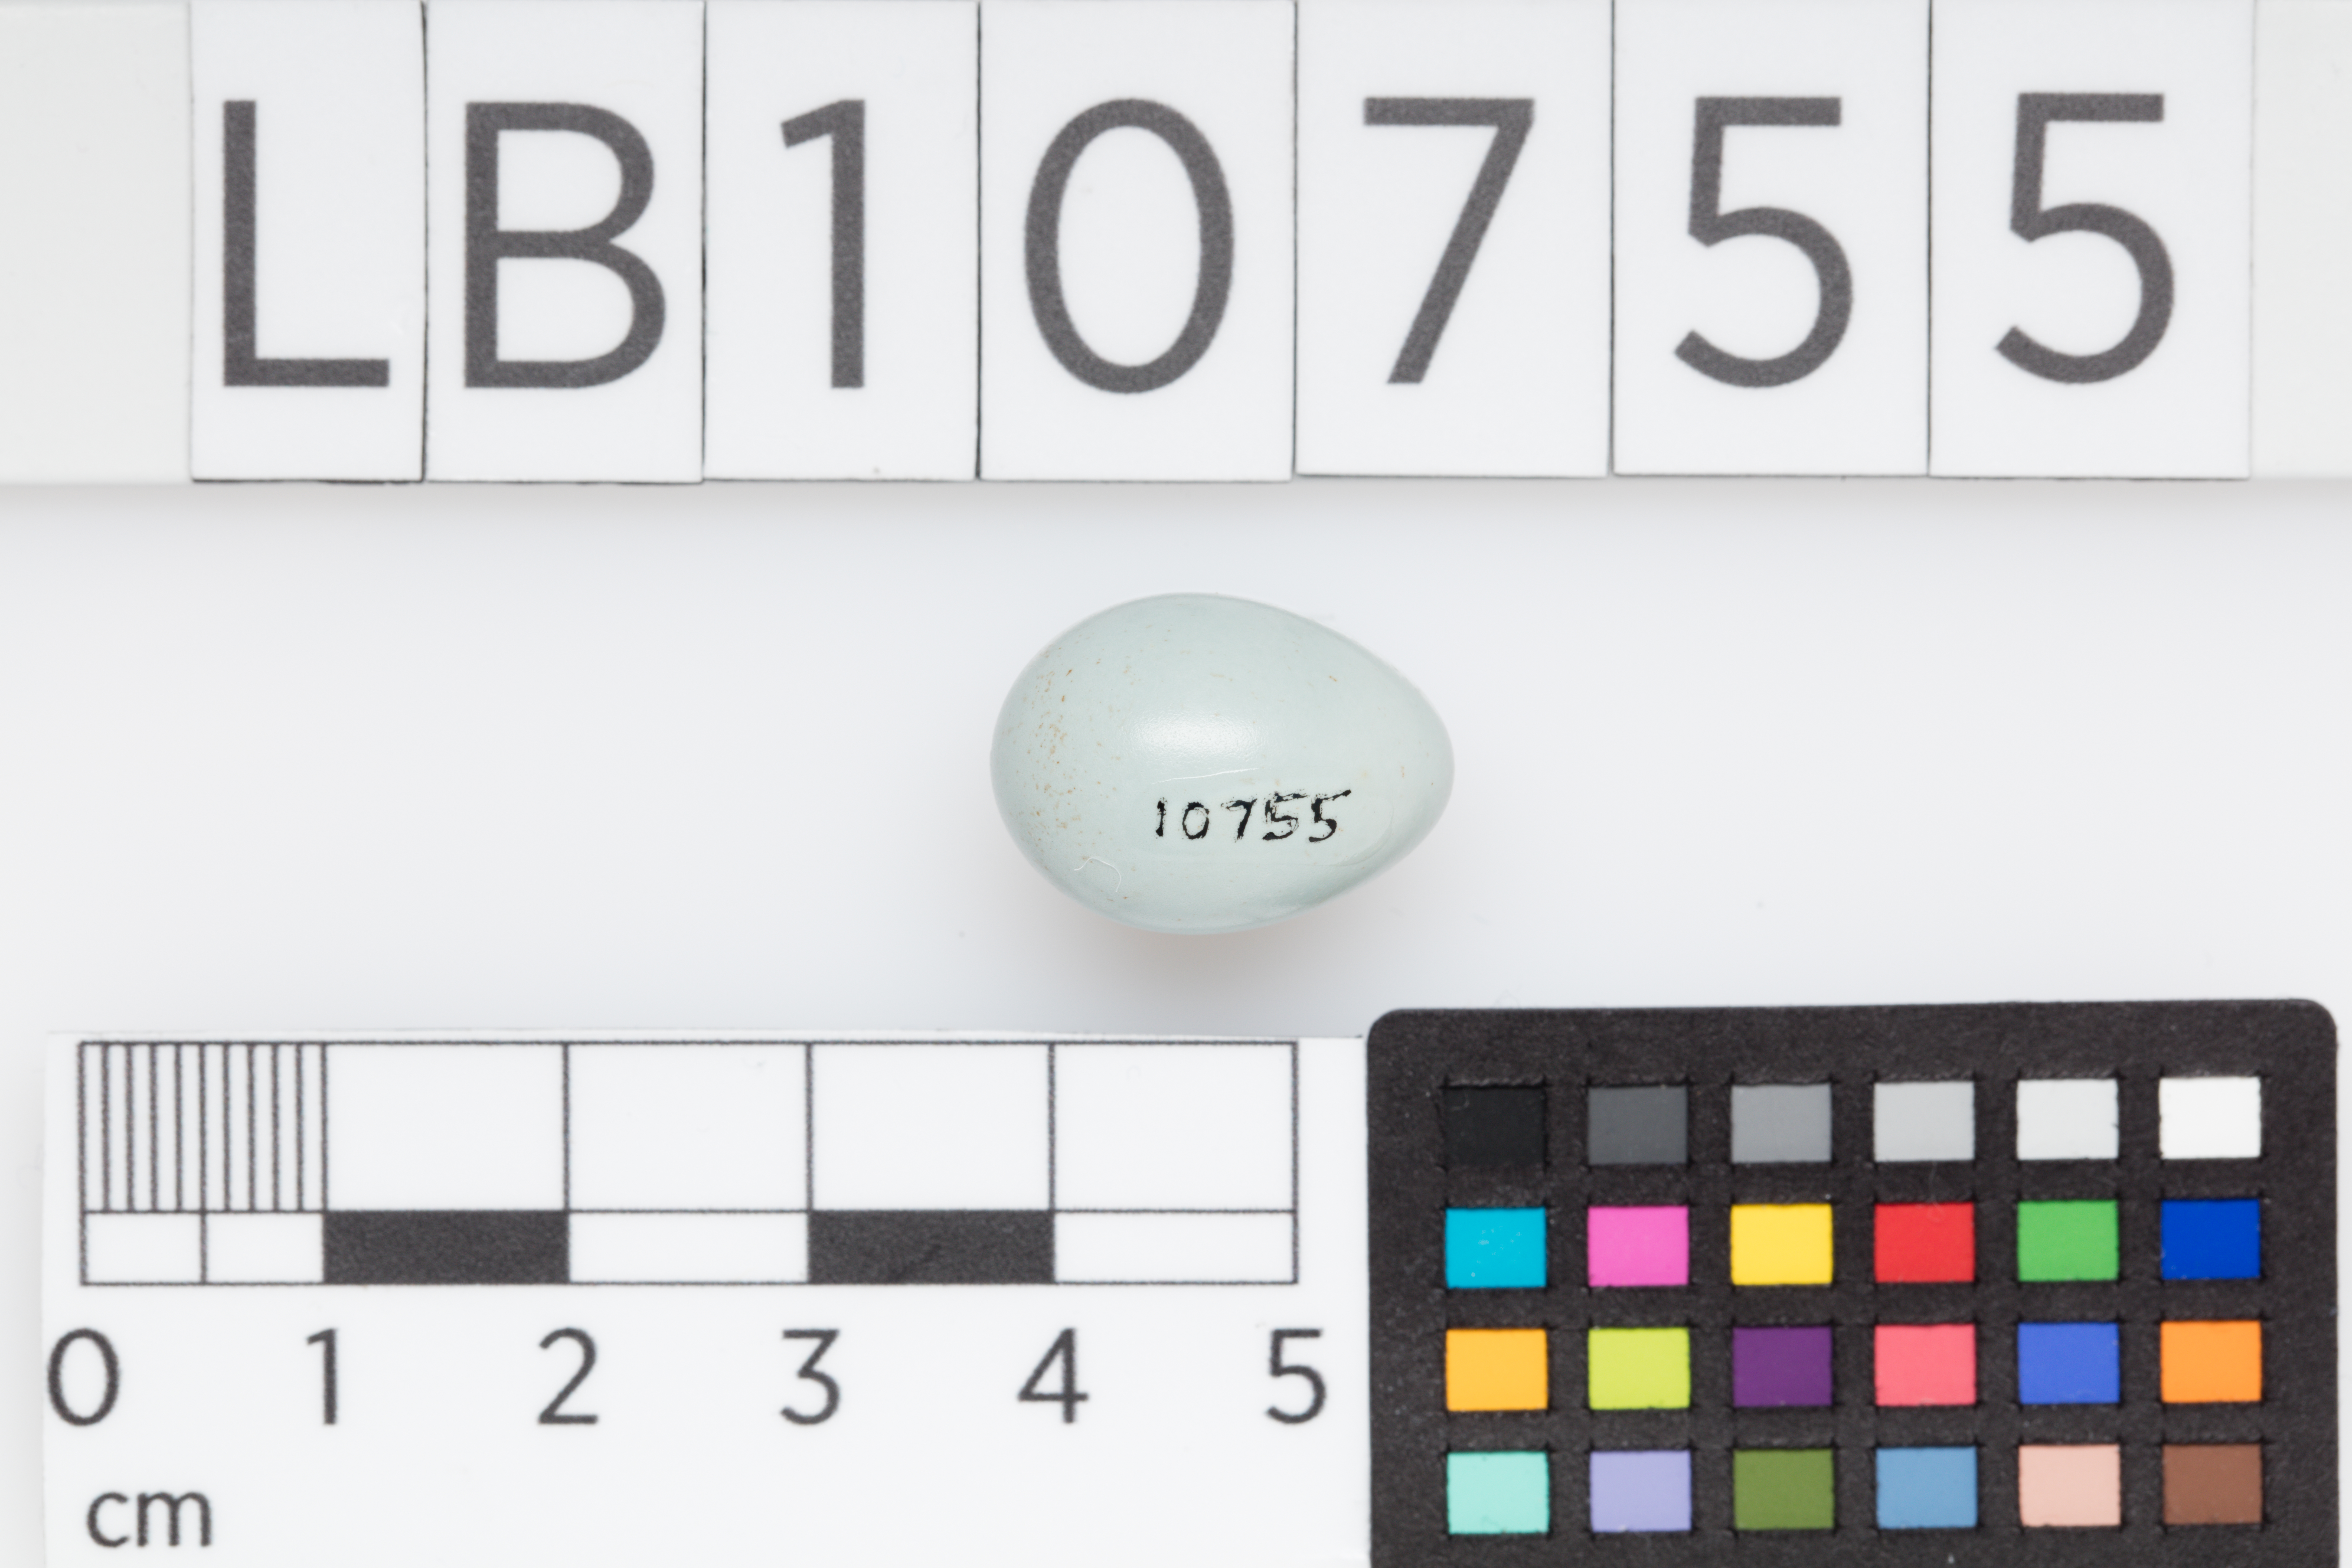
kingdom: Animalia
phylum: Chordata
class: Aves
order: Passeriformes
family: Prunellidae
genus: Prunella
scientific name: Prunella modularis
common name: Dunnock
